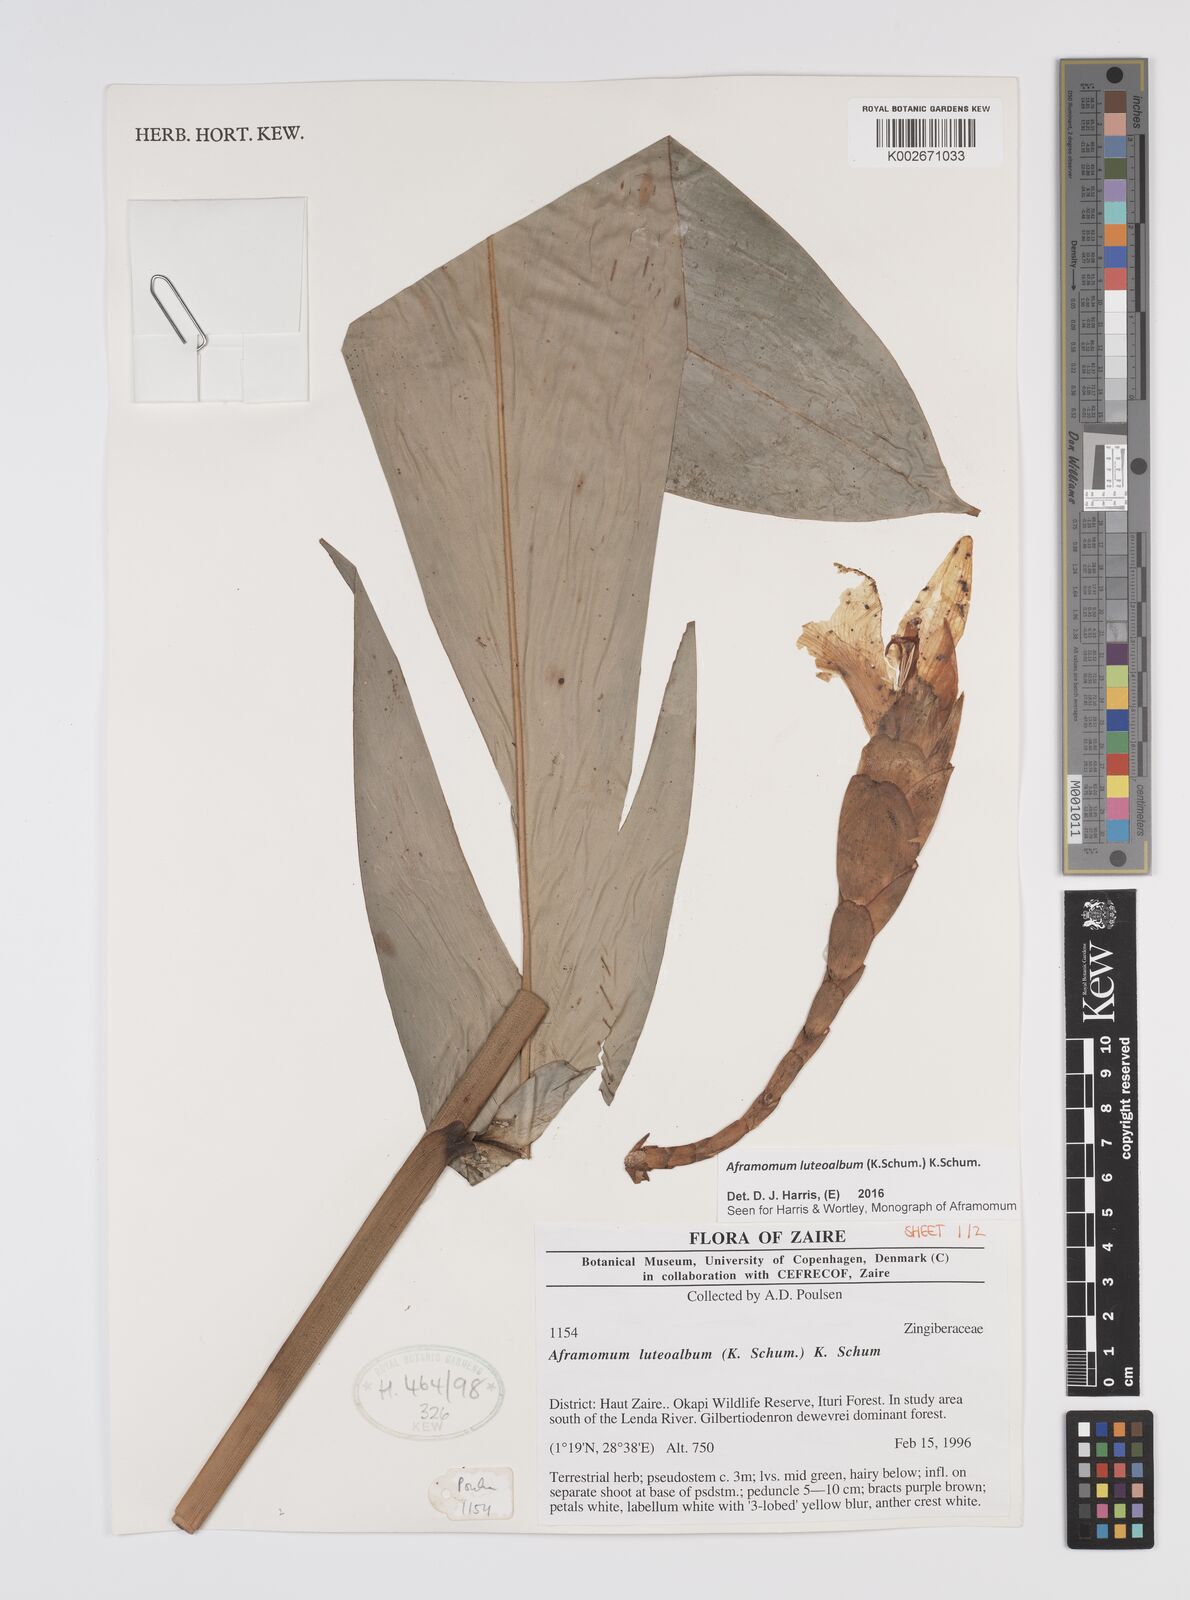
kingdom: Plantae
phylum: Tracheophyta
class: Liliopsida
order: Zingiberales
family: Zingiberaceae
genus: Aframomum
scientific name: Aframomum luteoalbum
